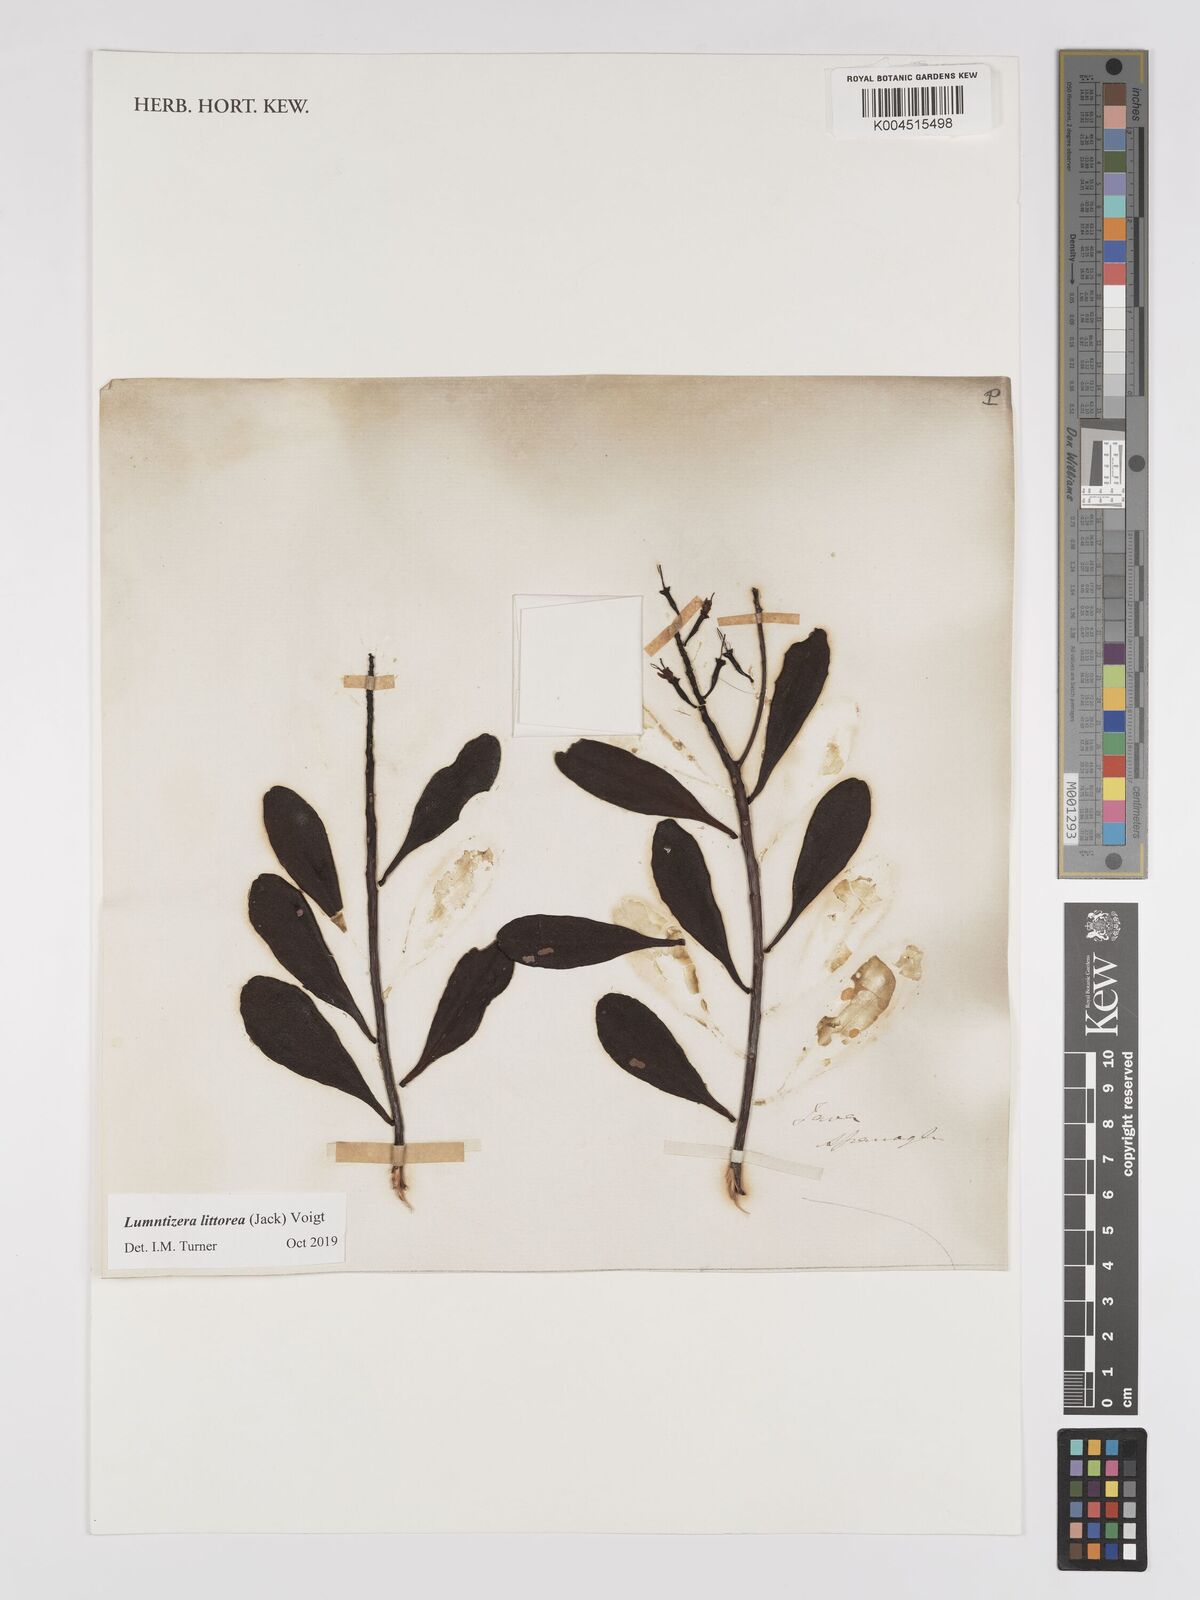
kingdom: Plantae
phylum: Tracheophyta
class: Magnoliopsida
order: Myrtales
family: Combretaceae
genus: Lumnitzera
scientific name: Lumnitzera littorea
